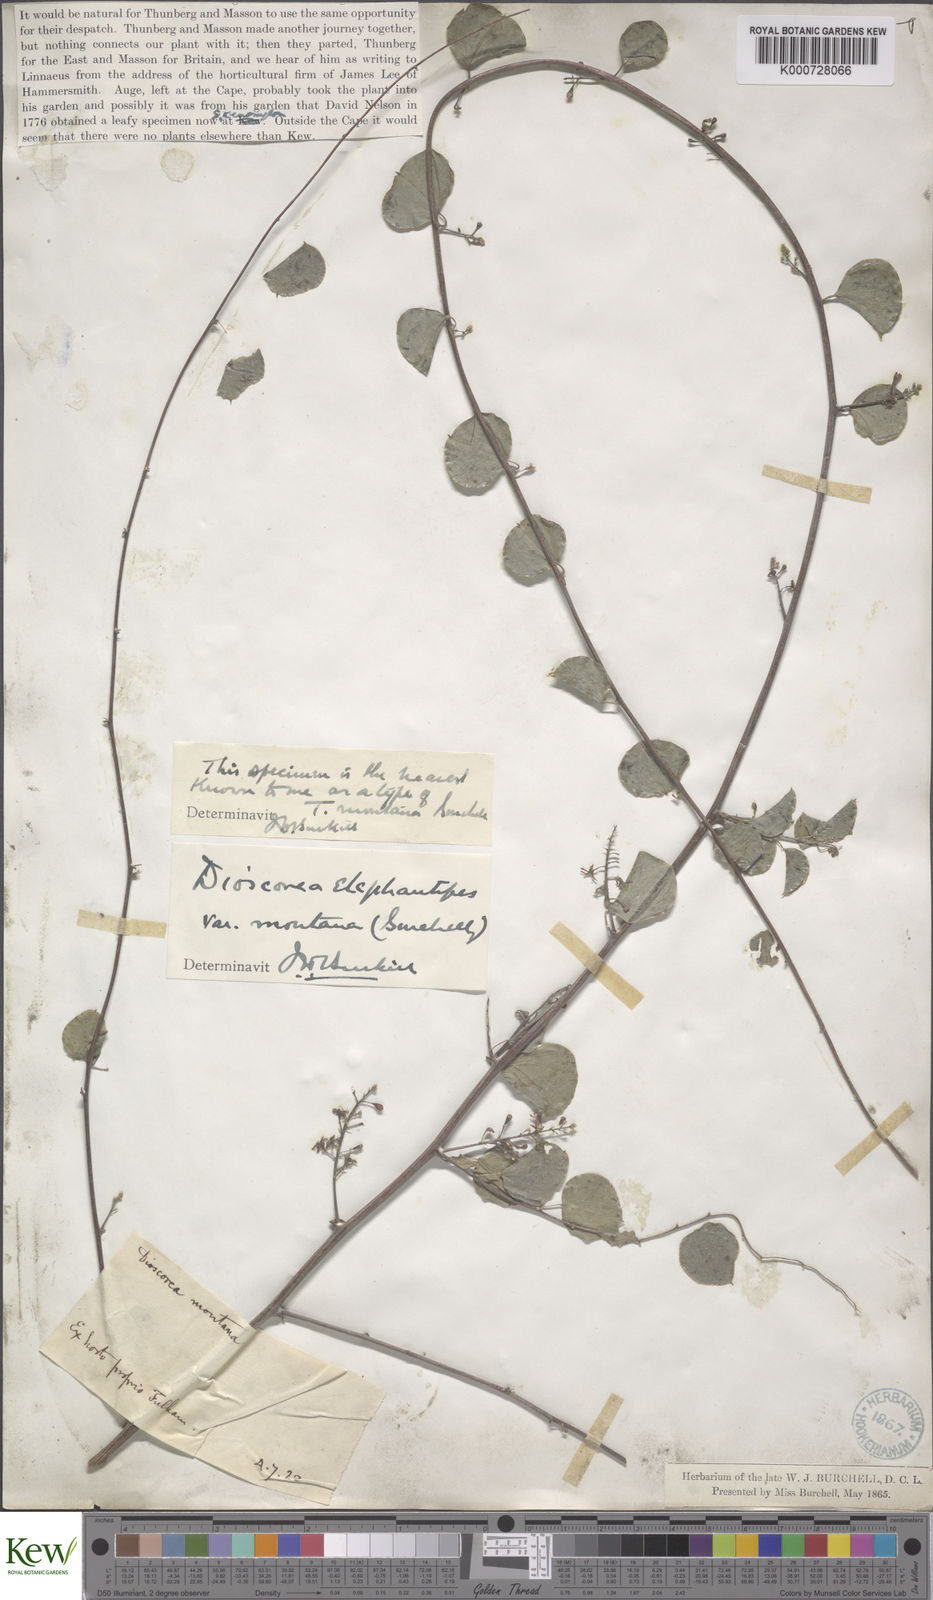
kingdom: Plantae
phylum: Tracheophyta
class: Liliopsida
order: Dioscoreales
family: Dioscoreaceae
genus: Dioscorea
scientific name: Dioscorea
